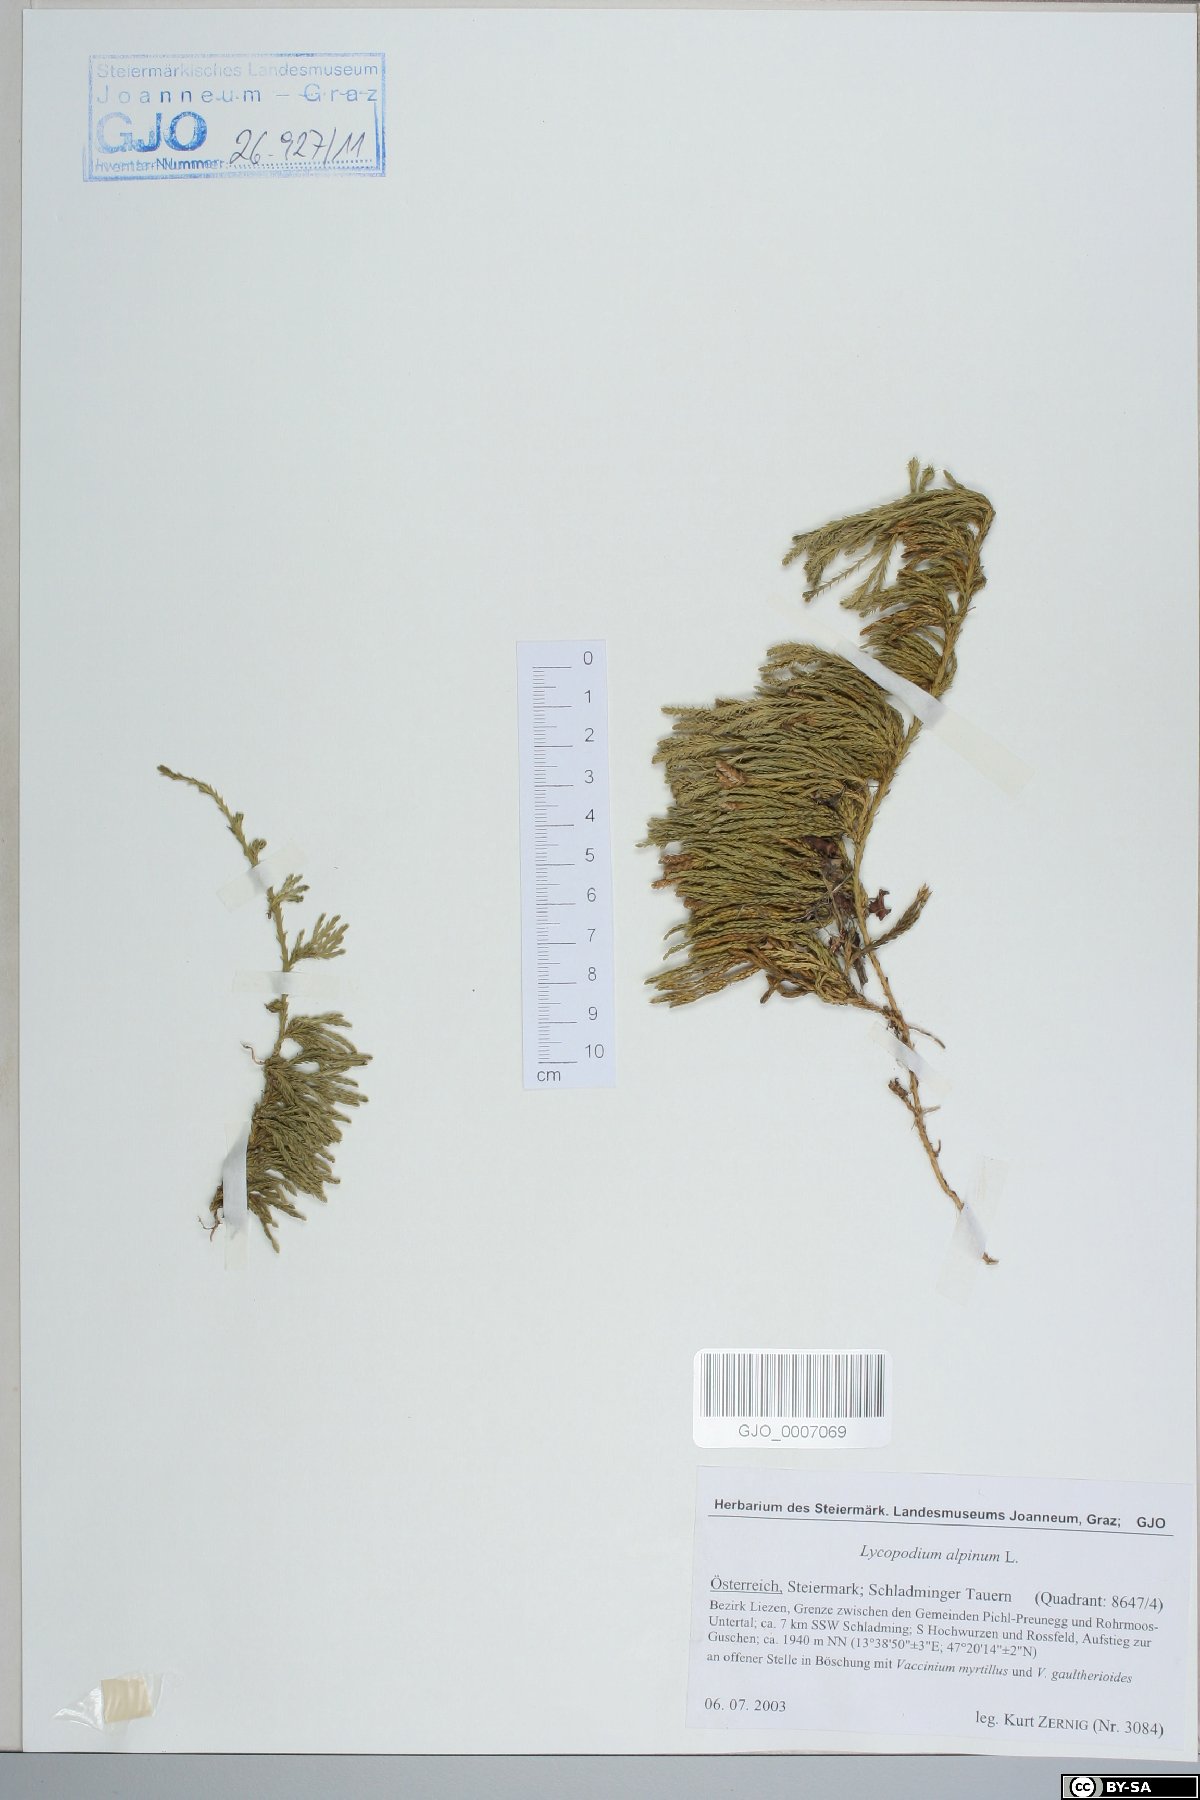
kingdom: Plantae
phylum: Tracheophyta
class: Lycopodiopsida
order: Lycopodiales
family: Lycopodiaceae
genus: Diphasiastrum
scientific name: Diphasiastrum alpinum
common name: Alpine clubmoss
